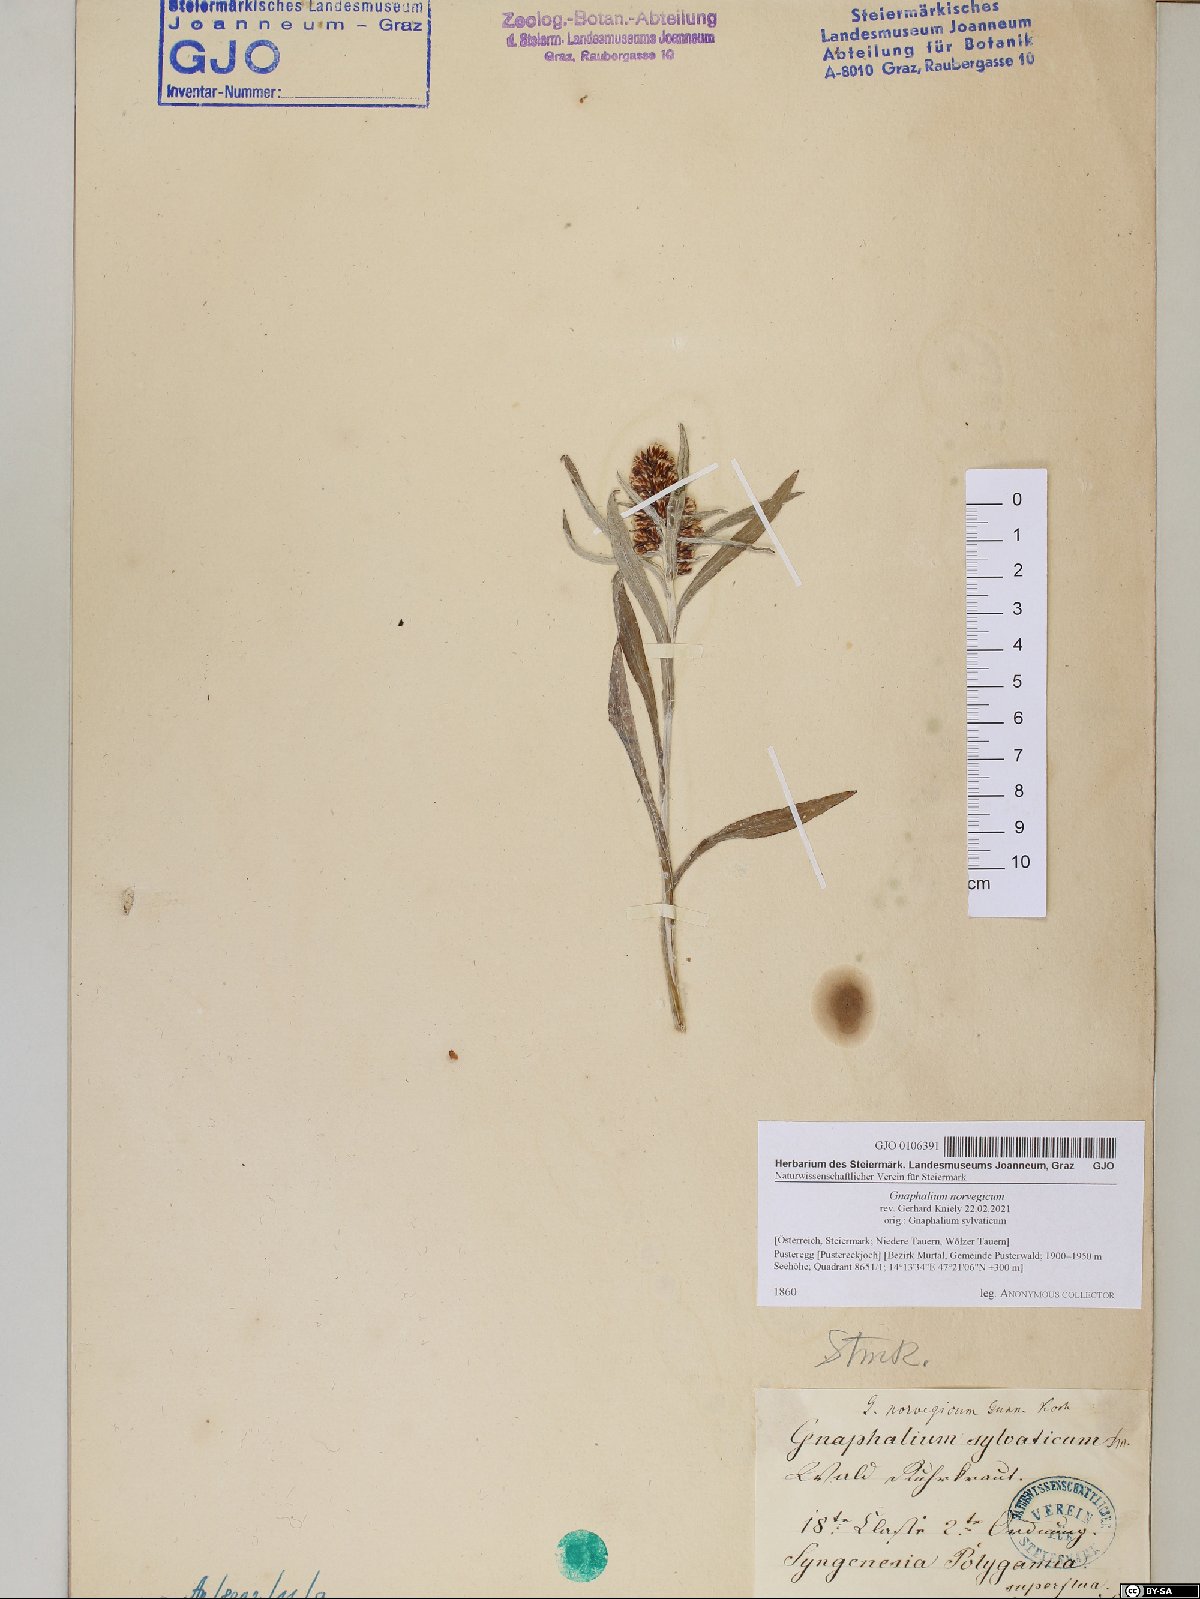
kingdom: Plantae
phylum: Tracheophyta
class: Magnoliopsida
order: Asterales
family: Asteraceae
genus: Omalotheca
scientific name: Omalotheca norvegica
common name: Norwegian arctic-cudweed
